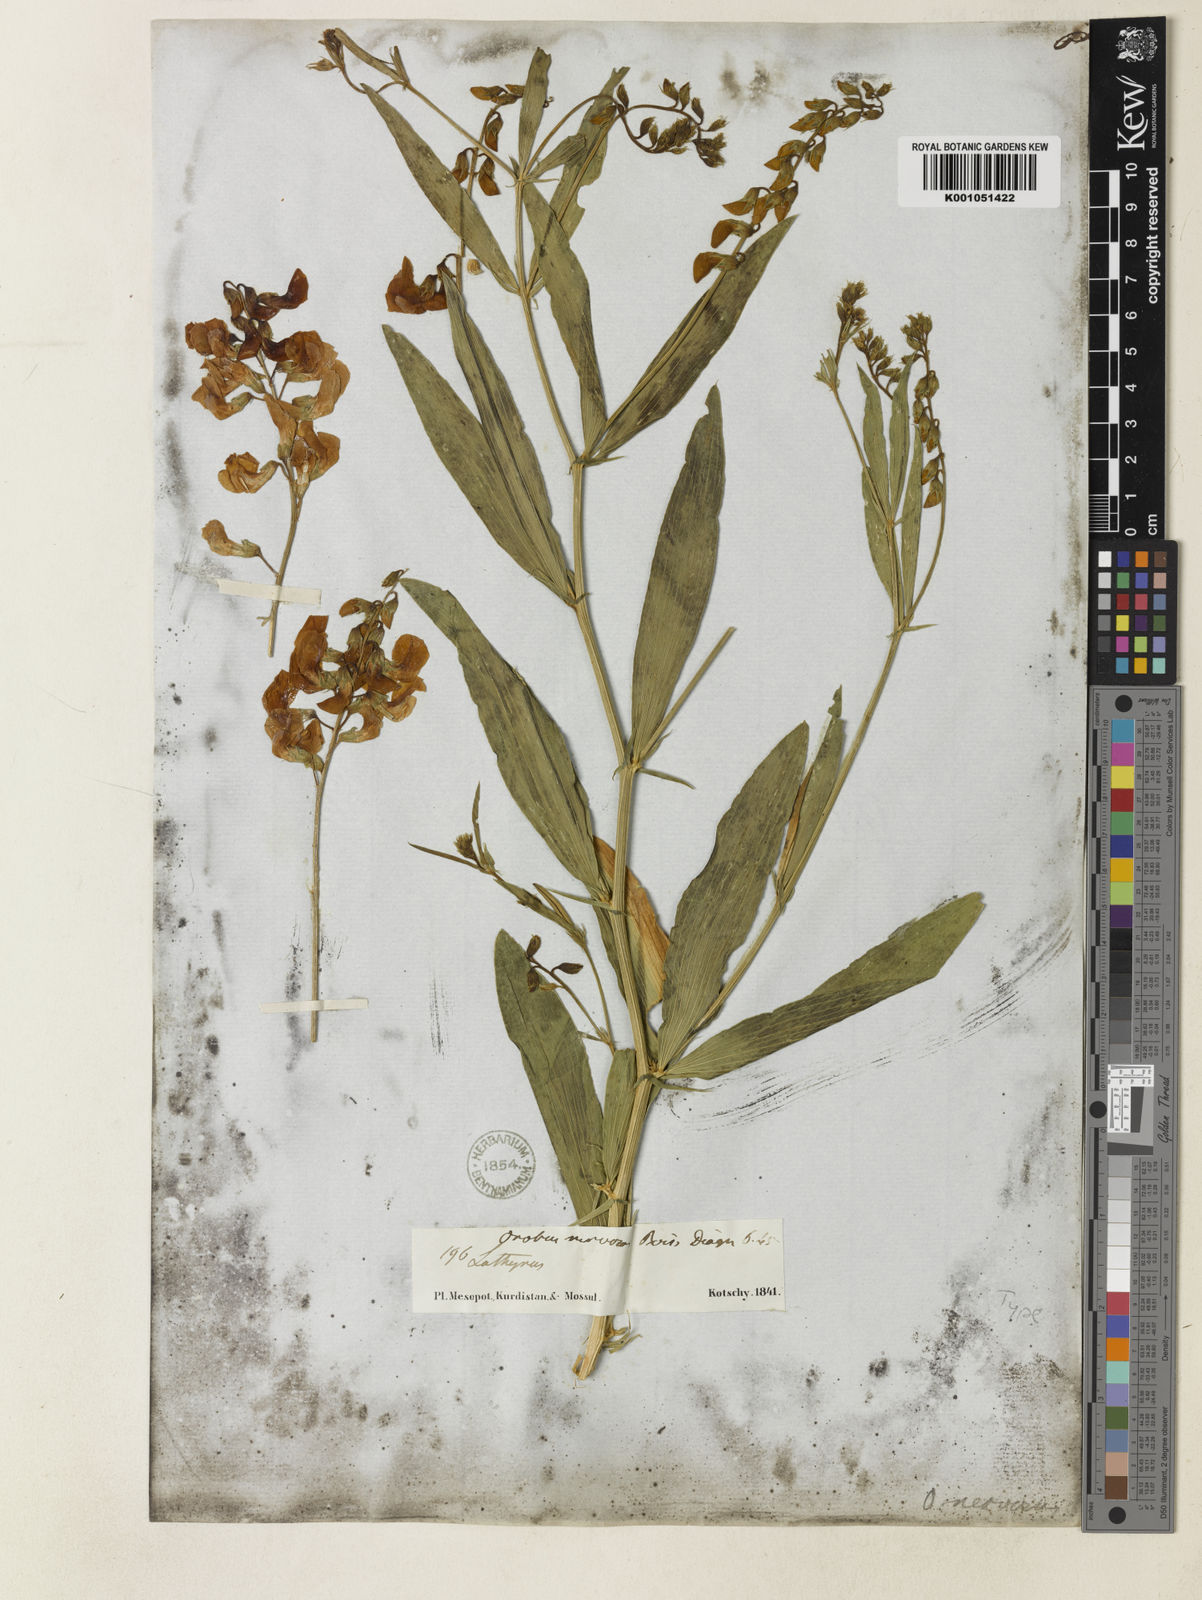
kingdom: Plantae
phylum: Tracheophyta
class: Magnoliopsida
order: Fabales
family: Fabaceae
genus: Lathyrus
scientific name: Lathyrus boissieri
